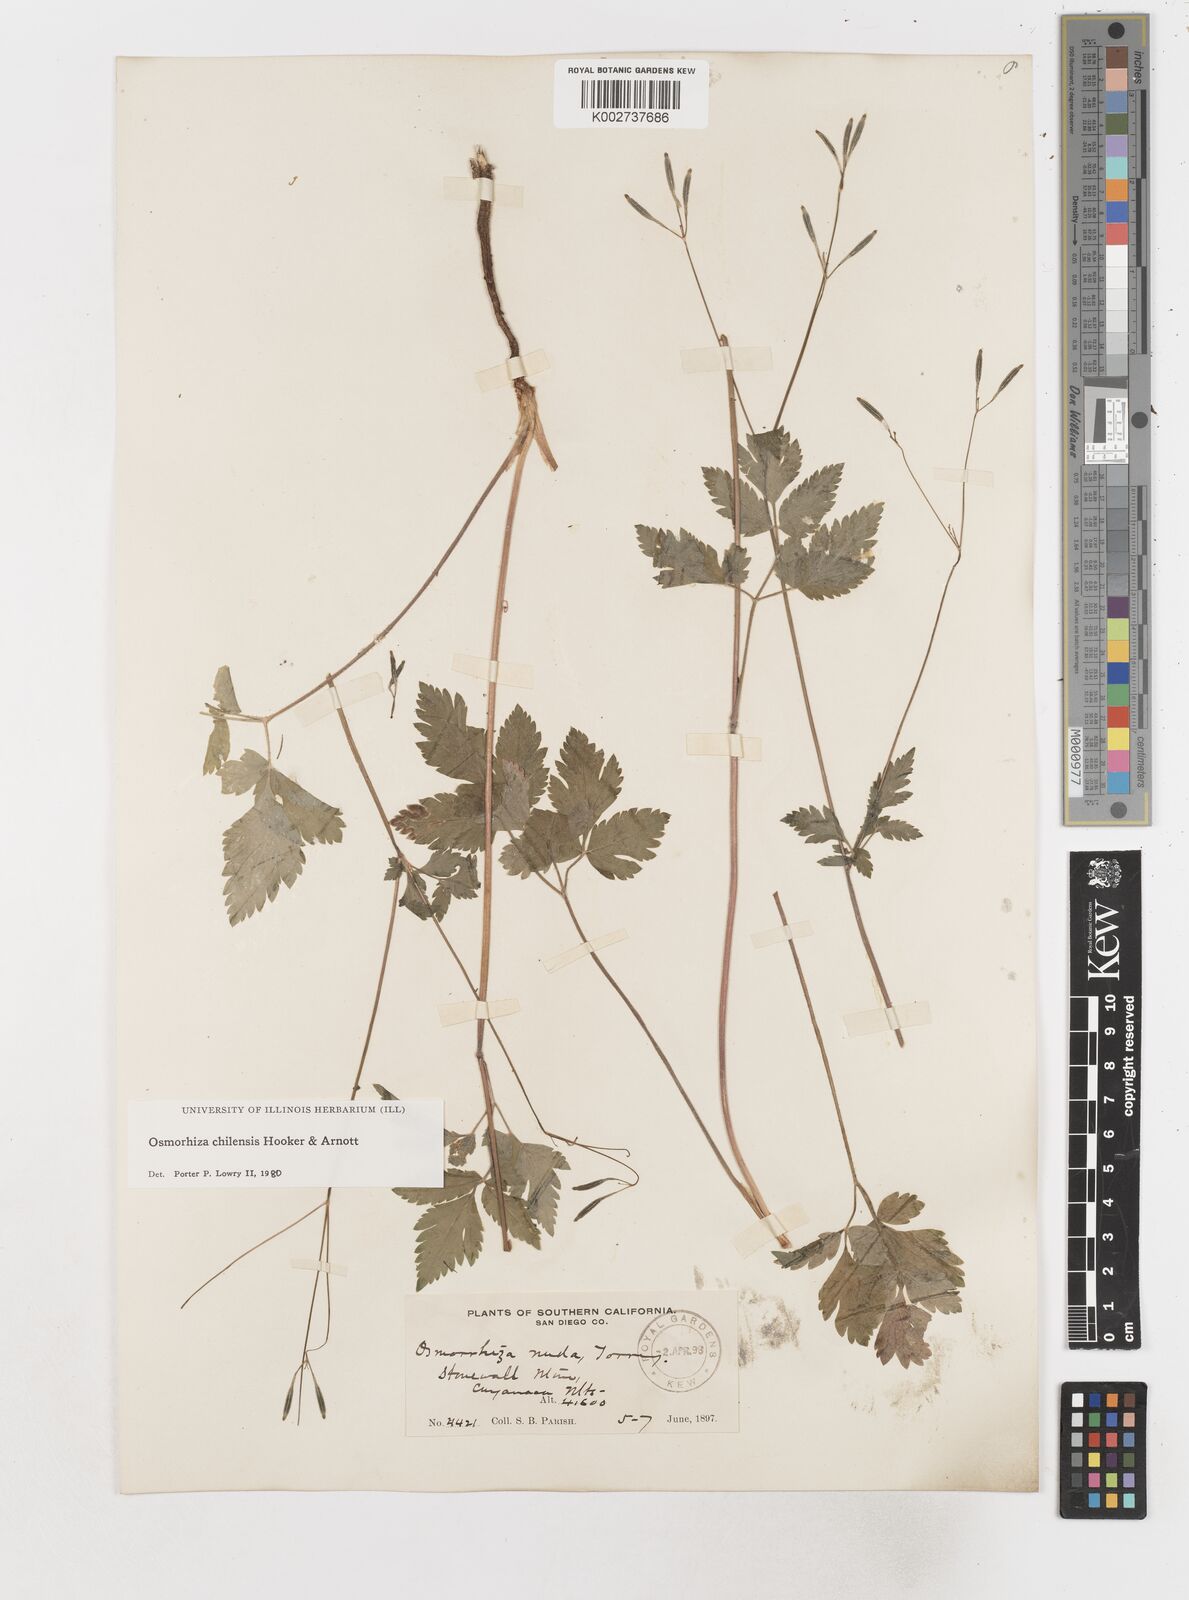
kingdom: Plantae
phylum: Tracheophyta
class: Magnoliopsida
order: Apiales
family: Apiaceae
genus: Osmorhiza
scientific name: Osmorhiza berteroi
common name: Mountain sweet cicely
